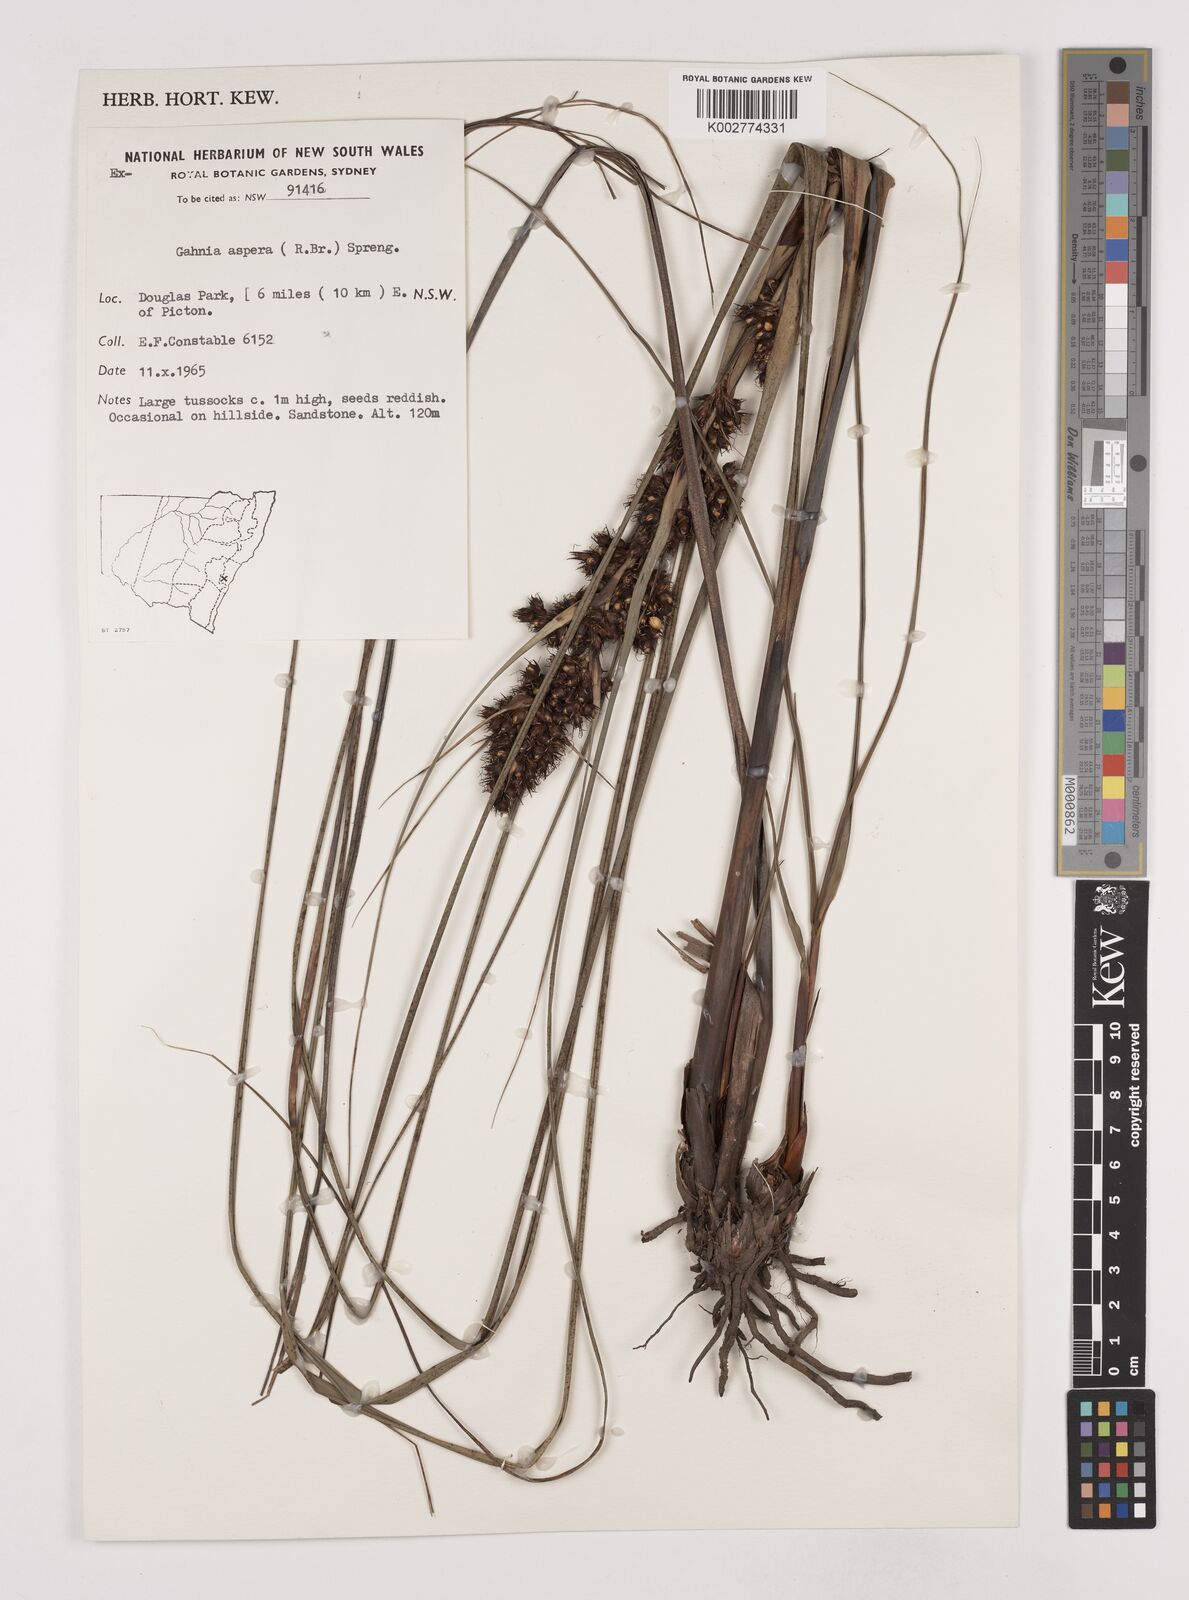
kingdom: Plantae
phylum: Tracheophyta
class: Liliopsida
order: Poales
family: Cyperaceae
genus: Gahnia
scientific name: Gahnia aspera
